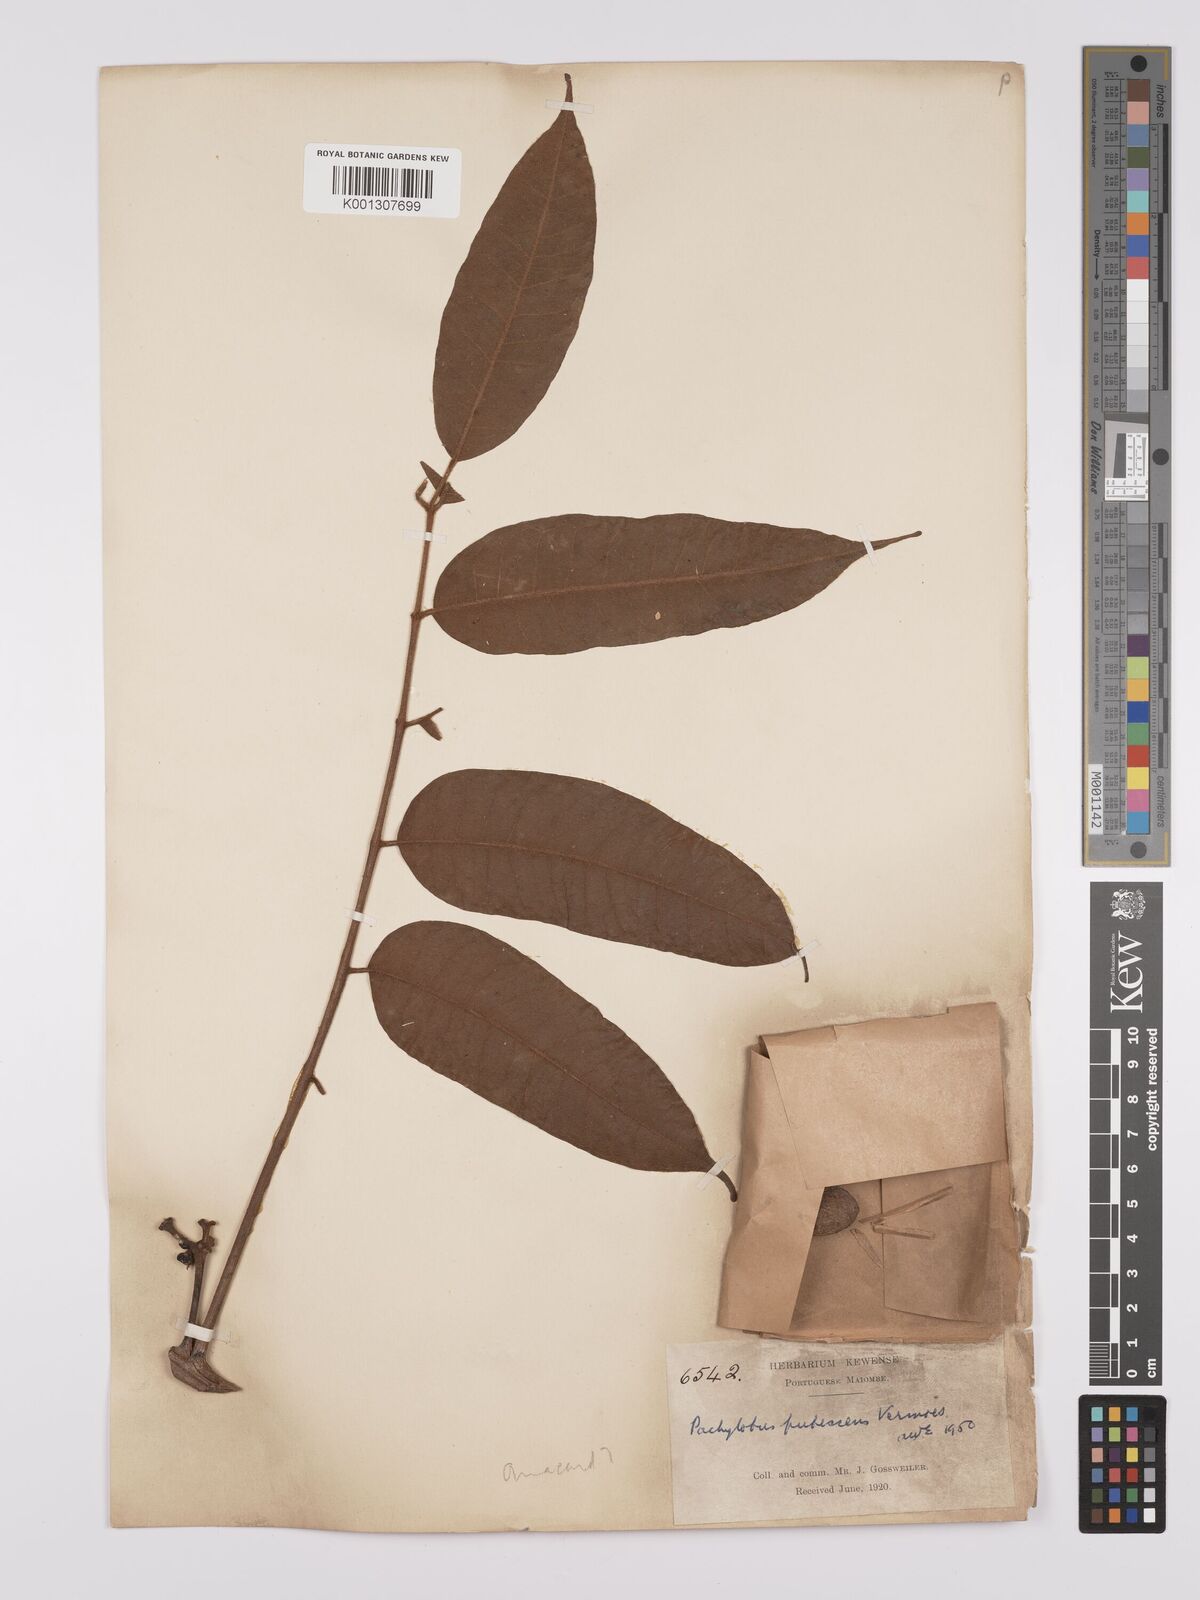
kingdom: Plantae
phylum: Tracheophyta
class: Magnoliopsida
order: Sapindales
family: Burseraceae
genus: Dacryodes
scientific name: Dacryodes
